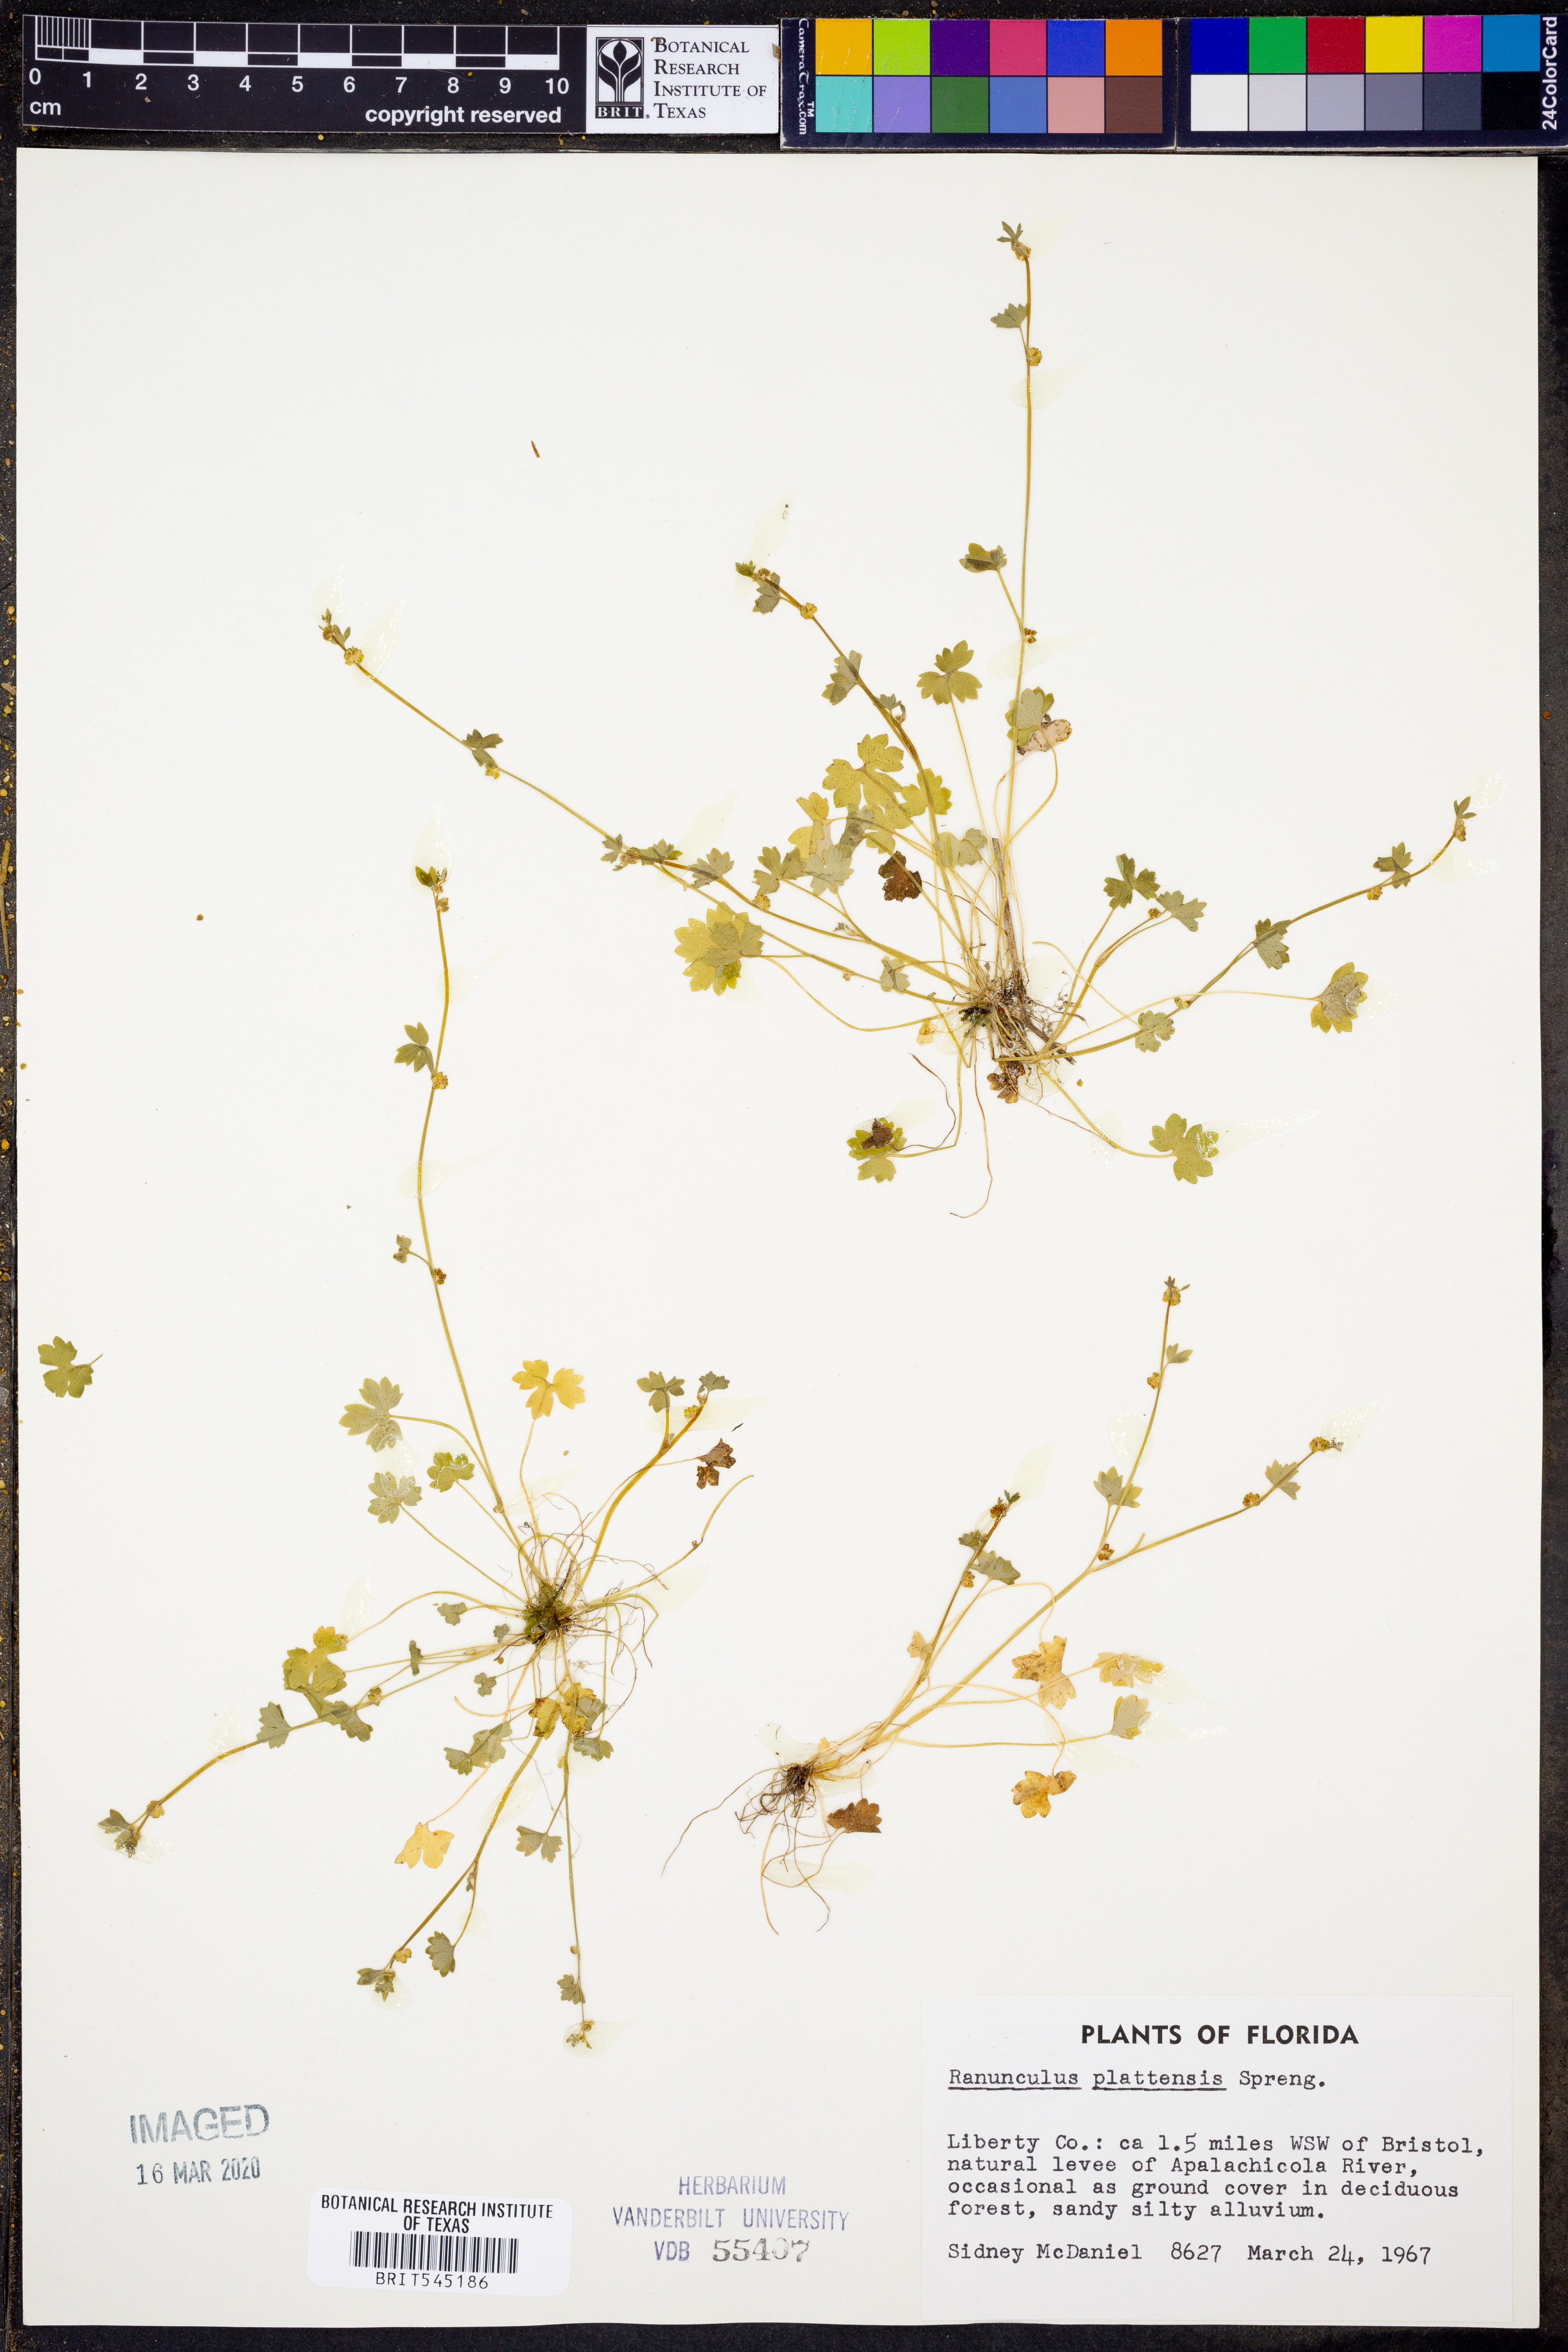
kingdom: Plantae
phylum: Tracheophyta
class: Magnoliopsida
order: Ranunculales
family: Ranunculaceae
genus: Ranunculus
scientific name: Ranunculus platensis
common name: Prairie buttercup
